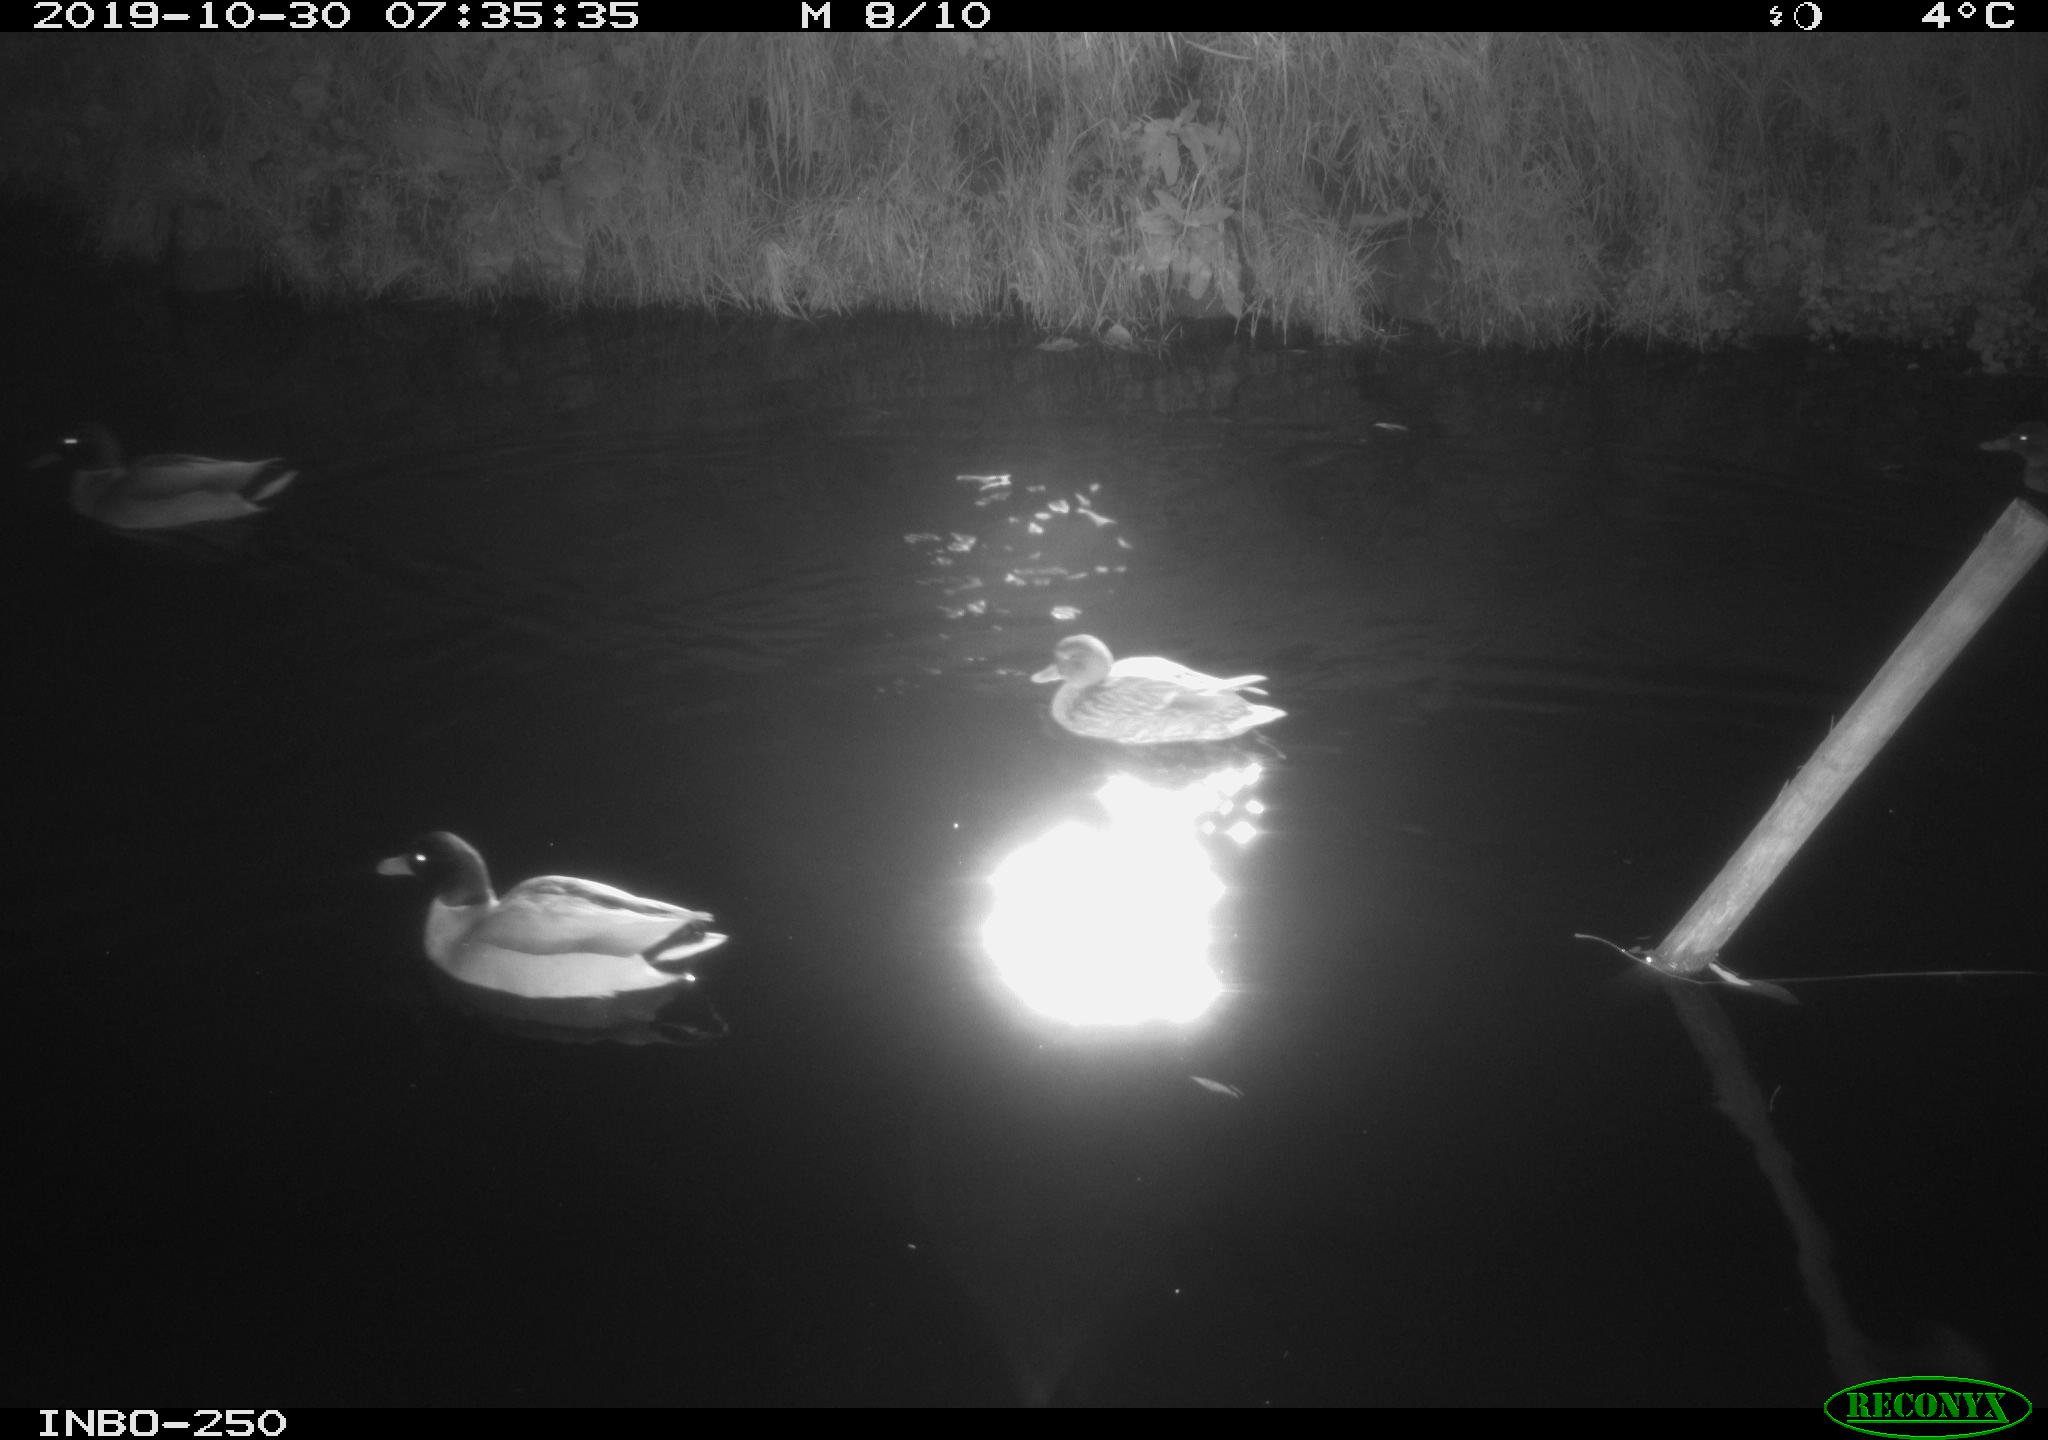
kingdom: Animalia
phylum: Chordata
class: Aves
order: Anseriformes
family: Anatidae
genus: Anas
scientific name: Anas platyrhynchos
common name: Mallard
